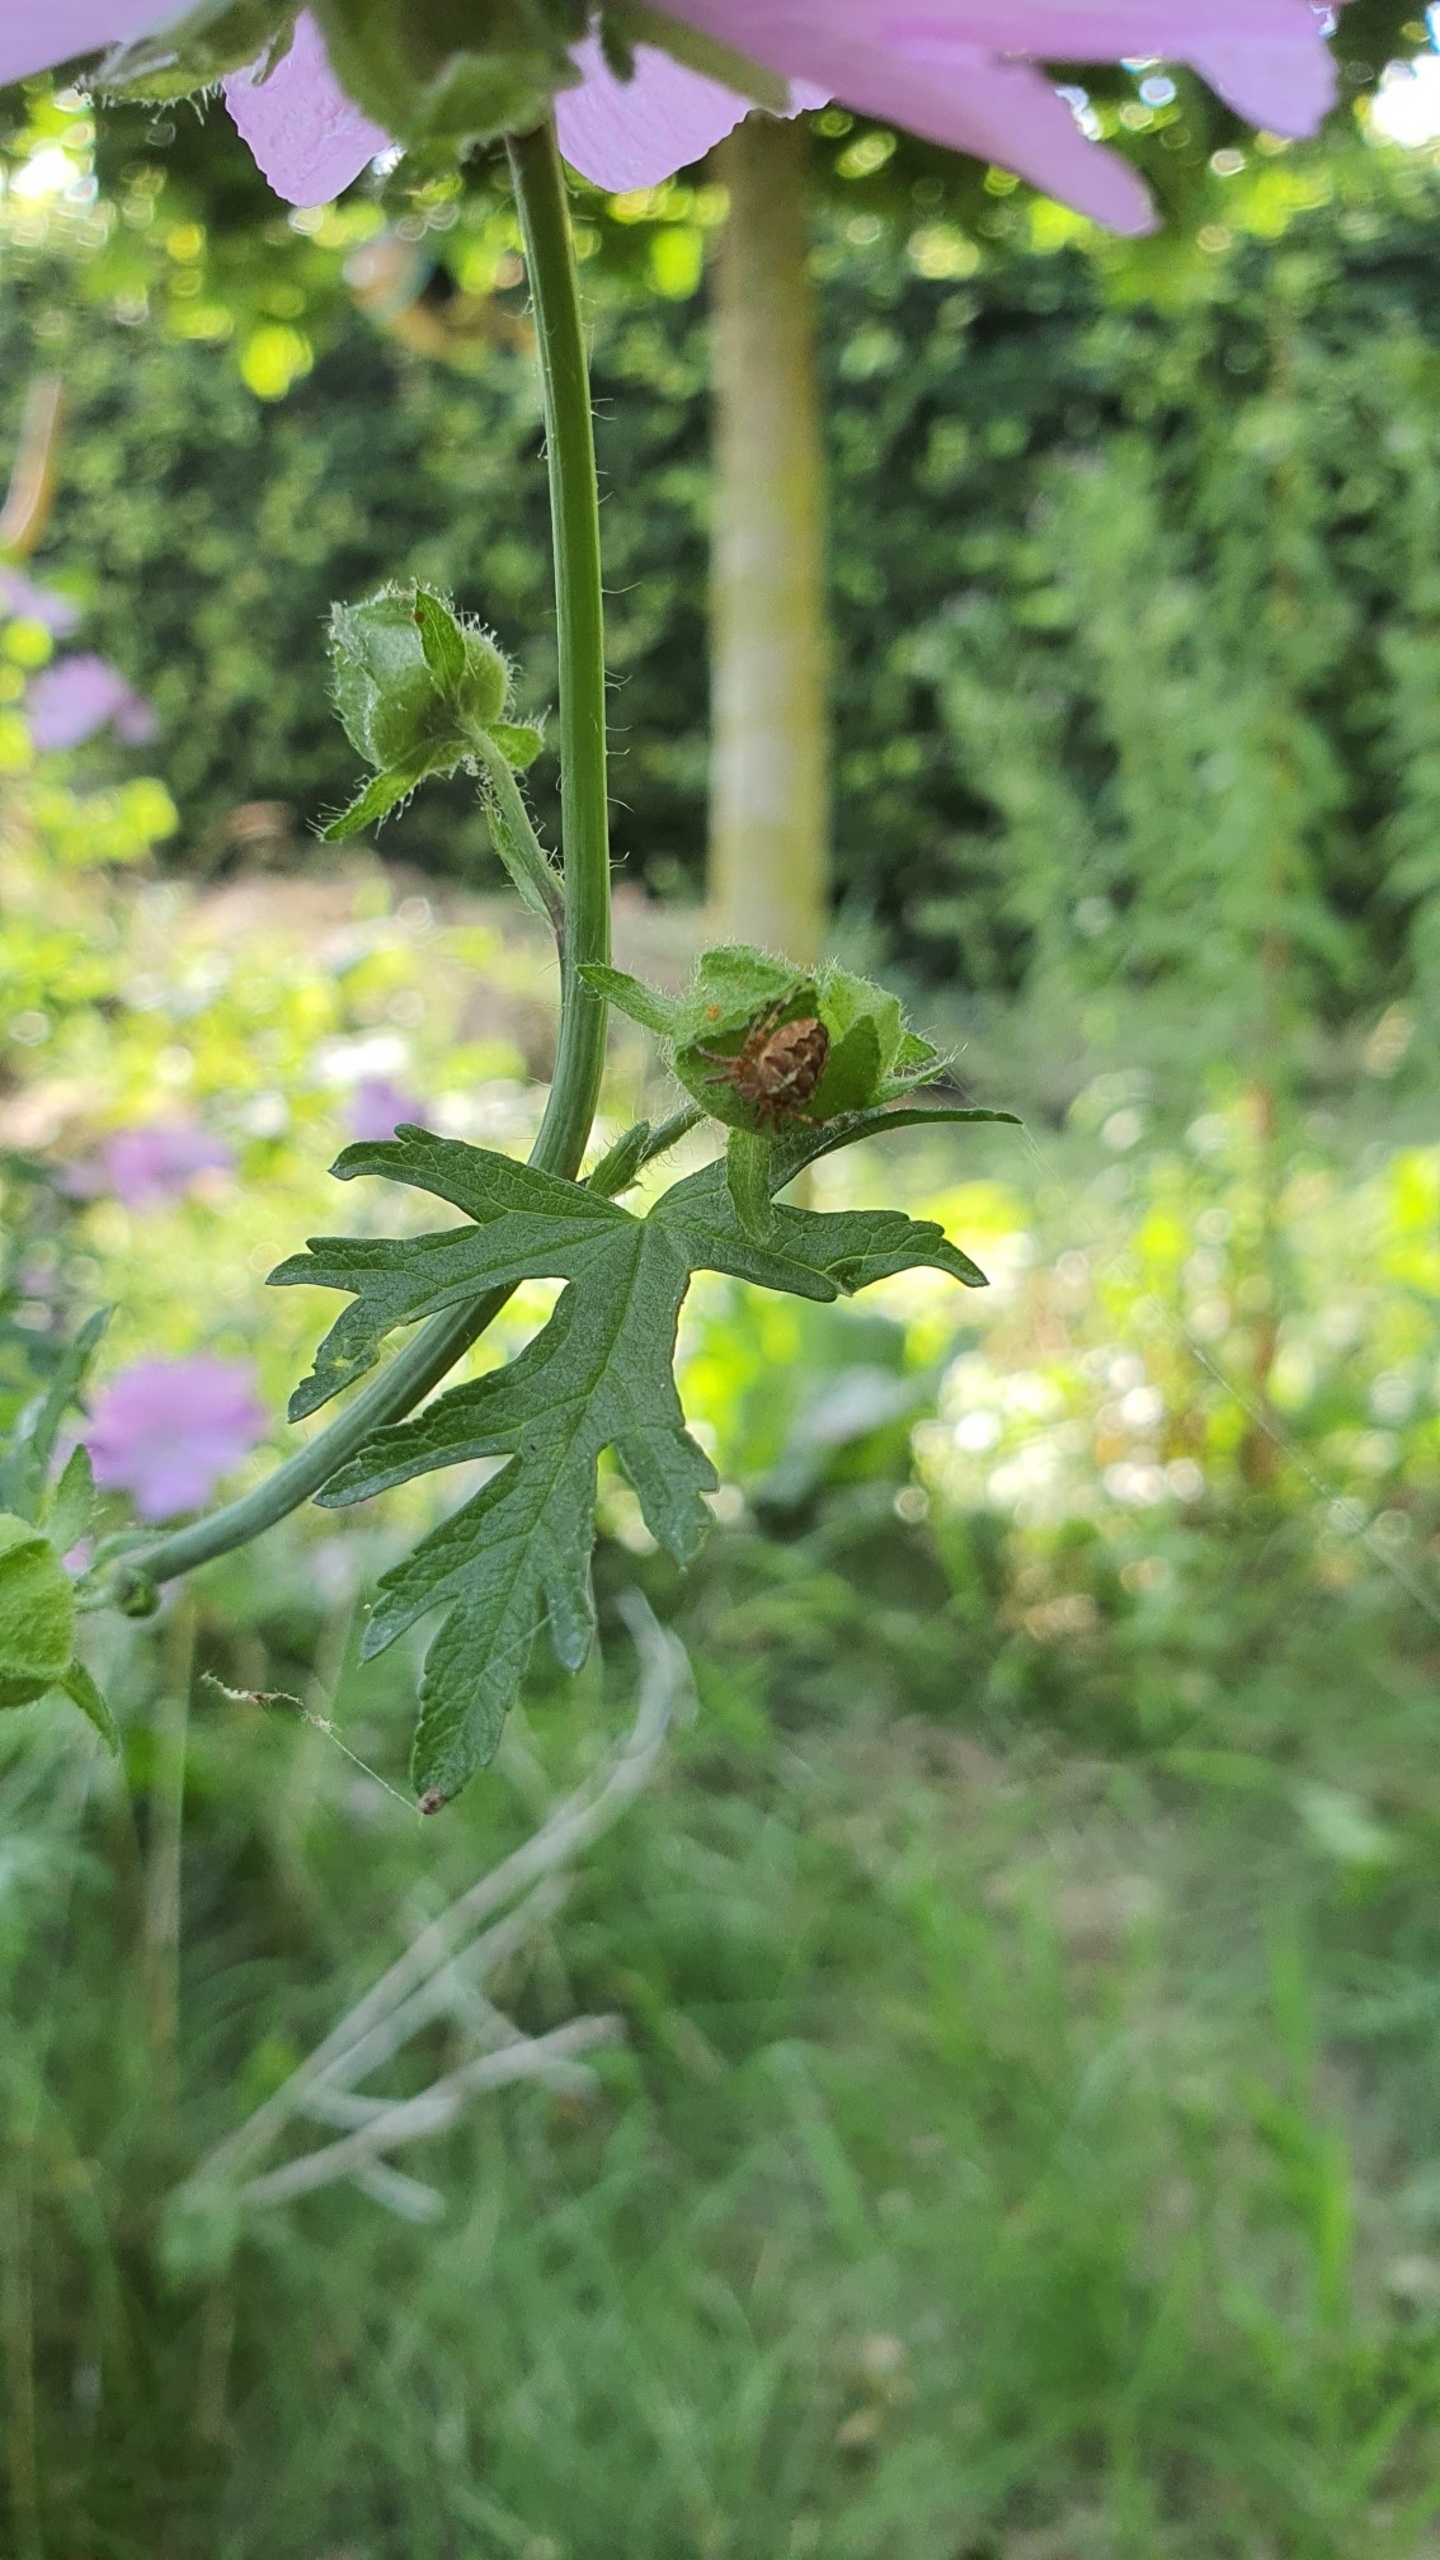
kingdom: Animalia
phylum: Arthropoda
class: Arachnida
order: Araneae
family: Araneidae
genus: Araneus
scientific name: Araneus diadematus
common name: Korsedderkop
